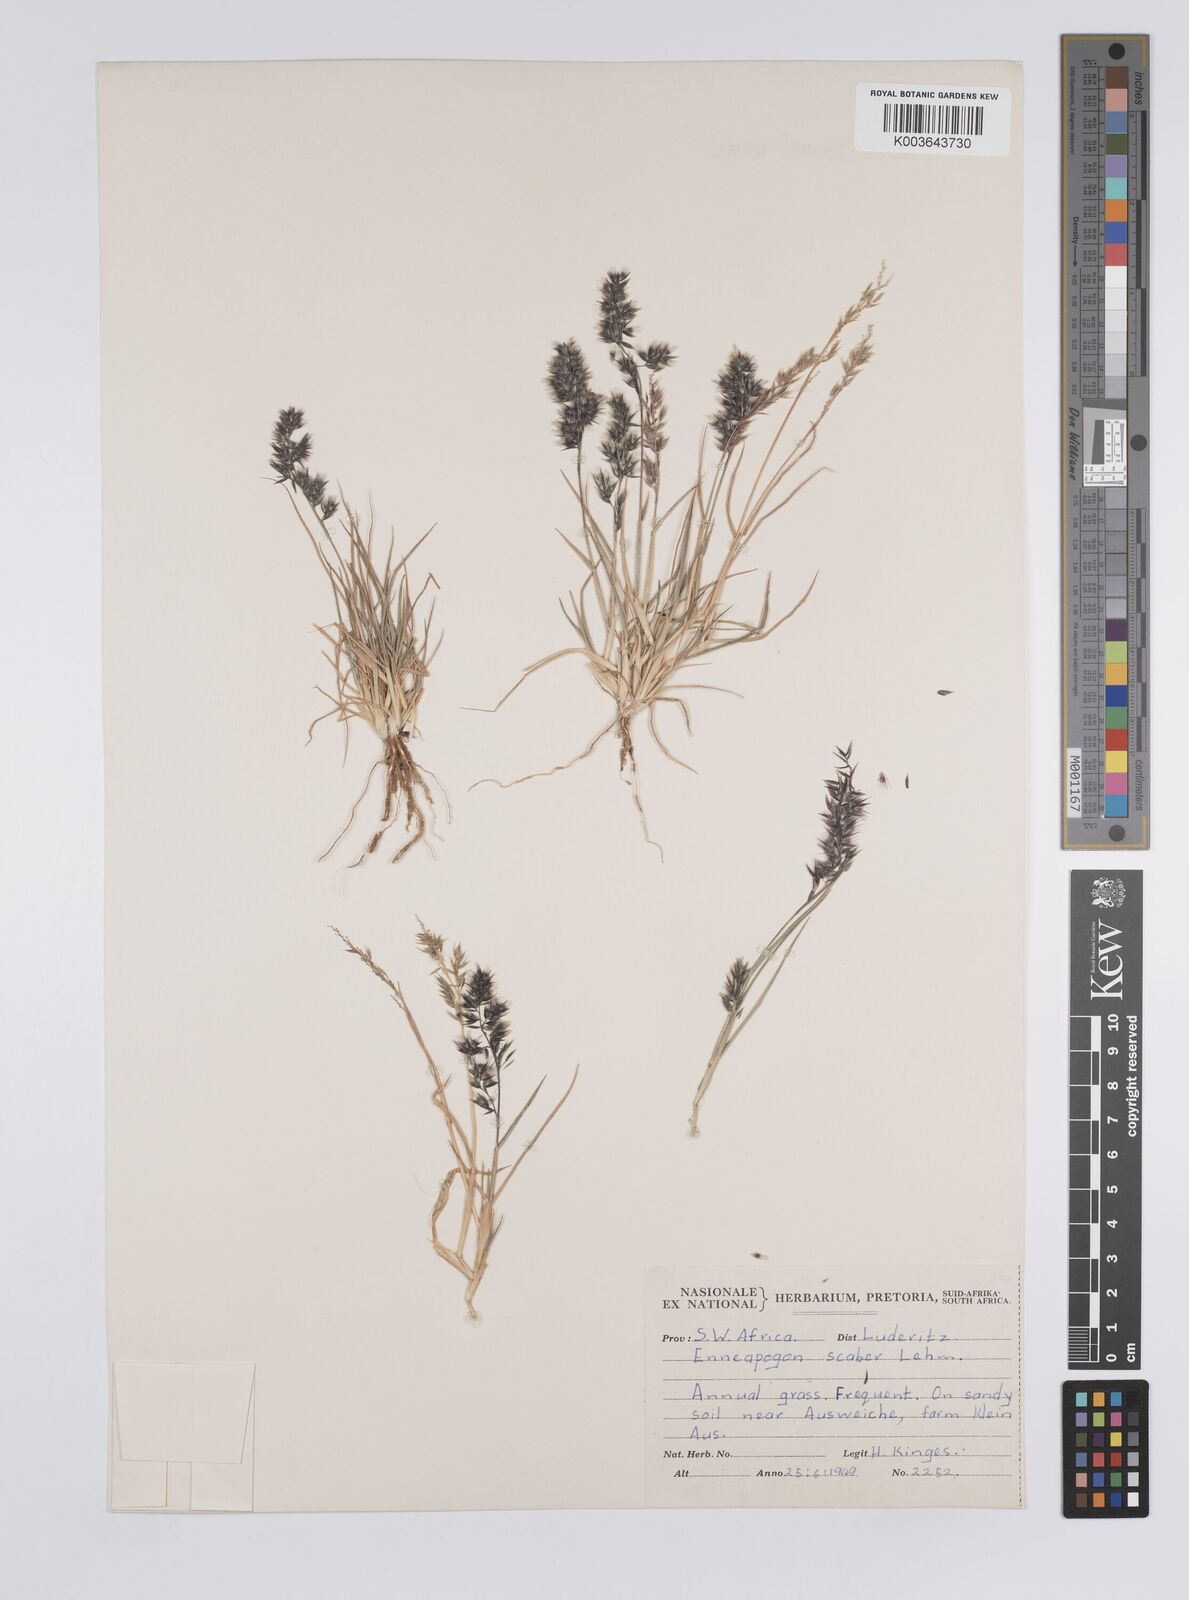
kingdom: Plantae
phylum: Tracheophyta
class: Liliopsida
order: Poales
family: Poaceae
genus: Enneapogon
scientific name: Enneapogon scaber
